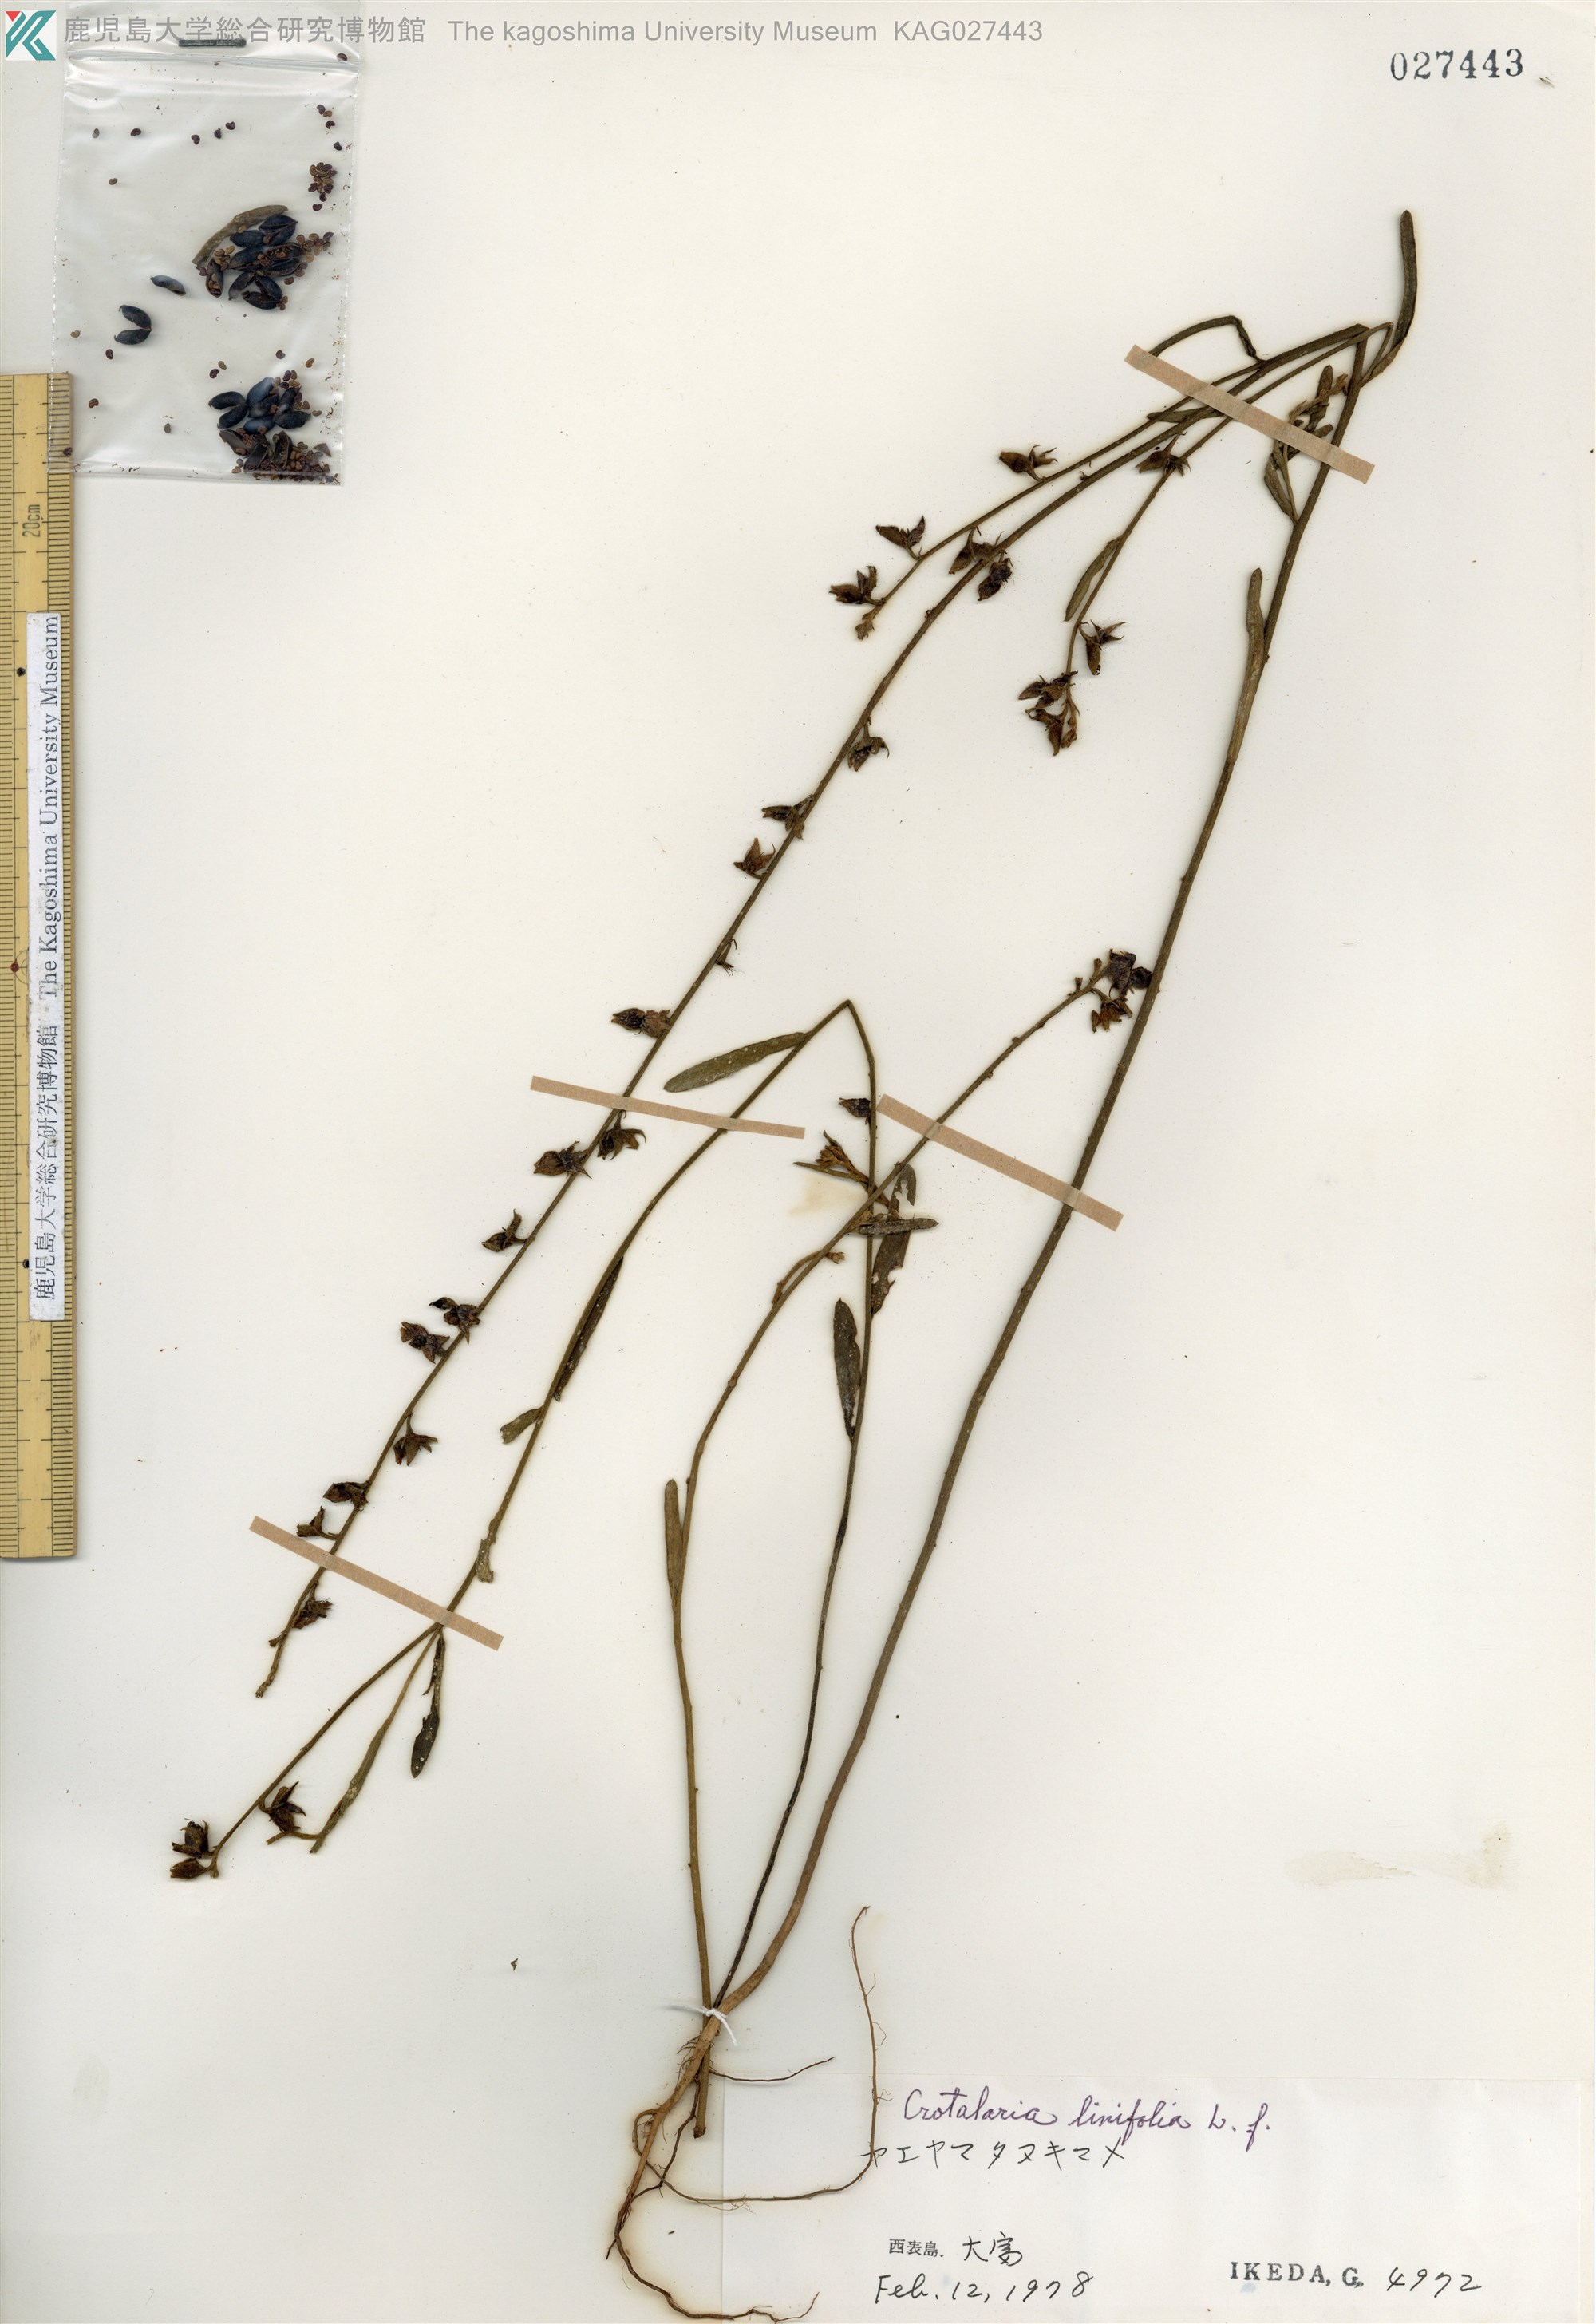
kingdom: Plantae
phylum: Tracheophyta
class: Magnoliopsida
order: Fabales
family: Fabaceae
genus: Crotalaria
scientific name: Crotalaria montana
